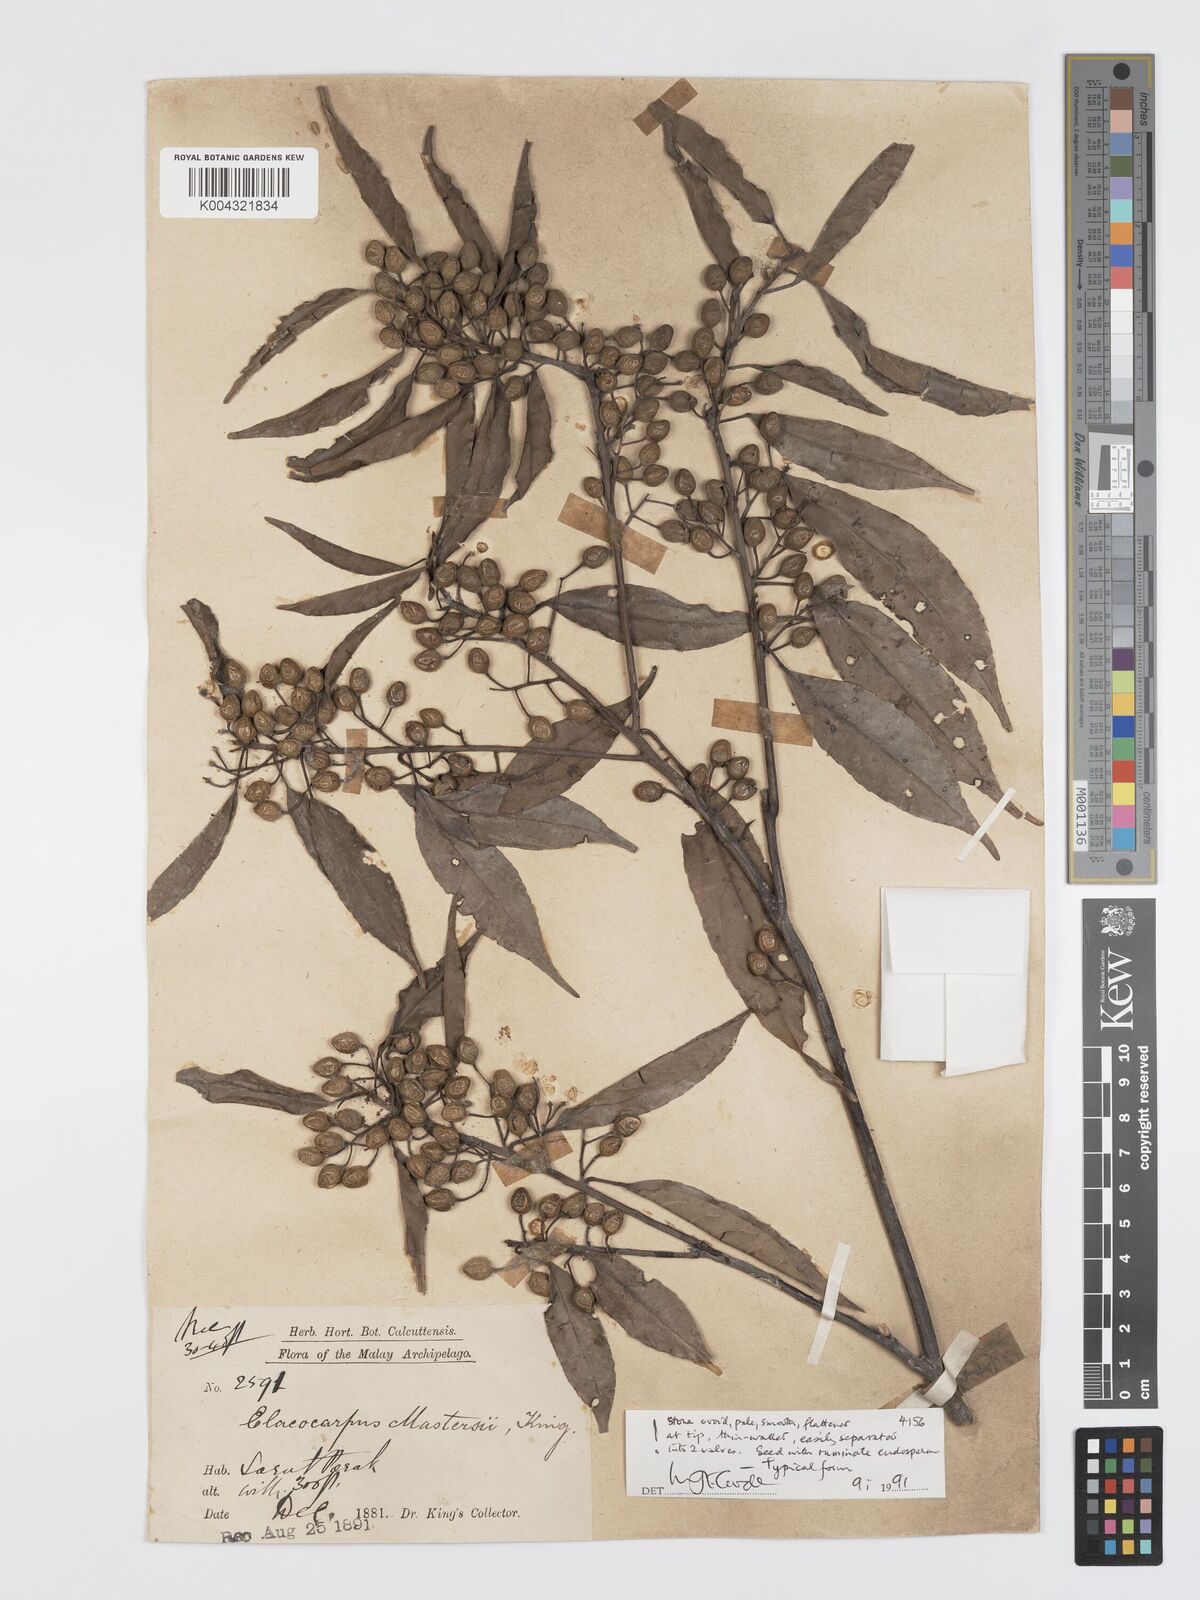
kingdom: Plantae
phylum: Tracheophyta
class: Magnoliopsida
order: Oxalidales
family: Elaeocarpaceae
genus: Elaeocarpus
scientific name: Elaeocarpus mastersii
